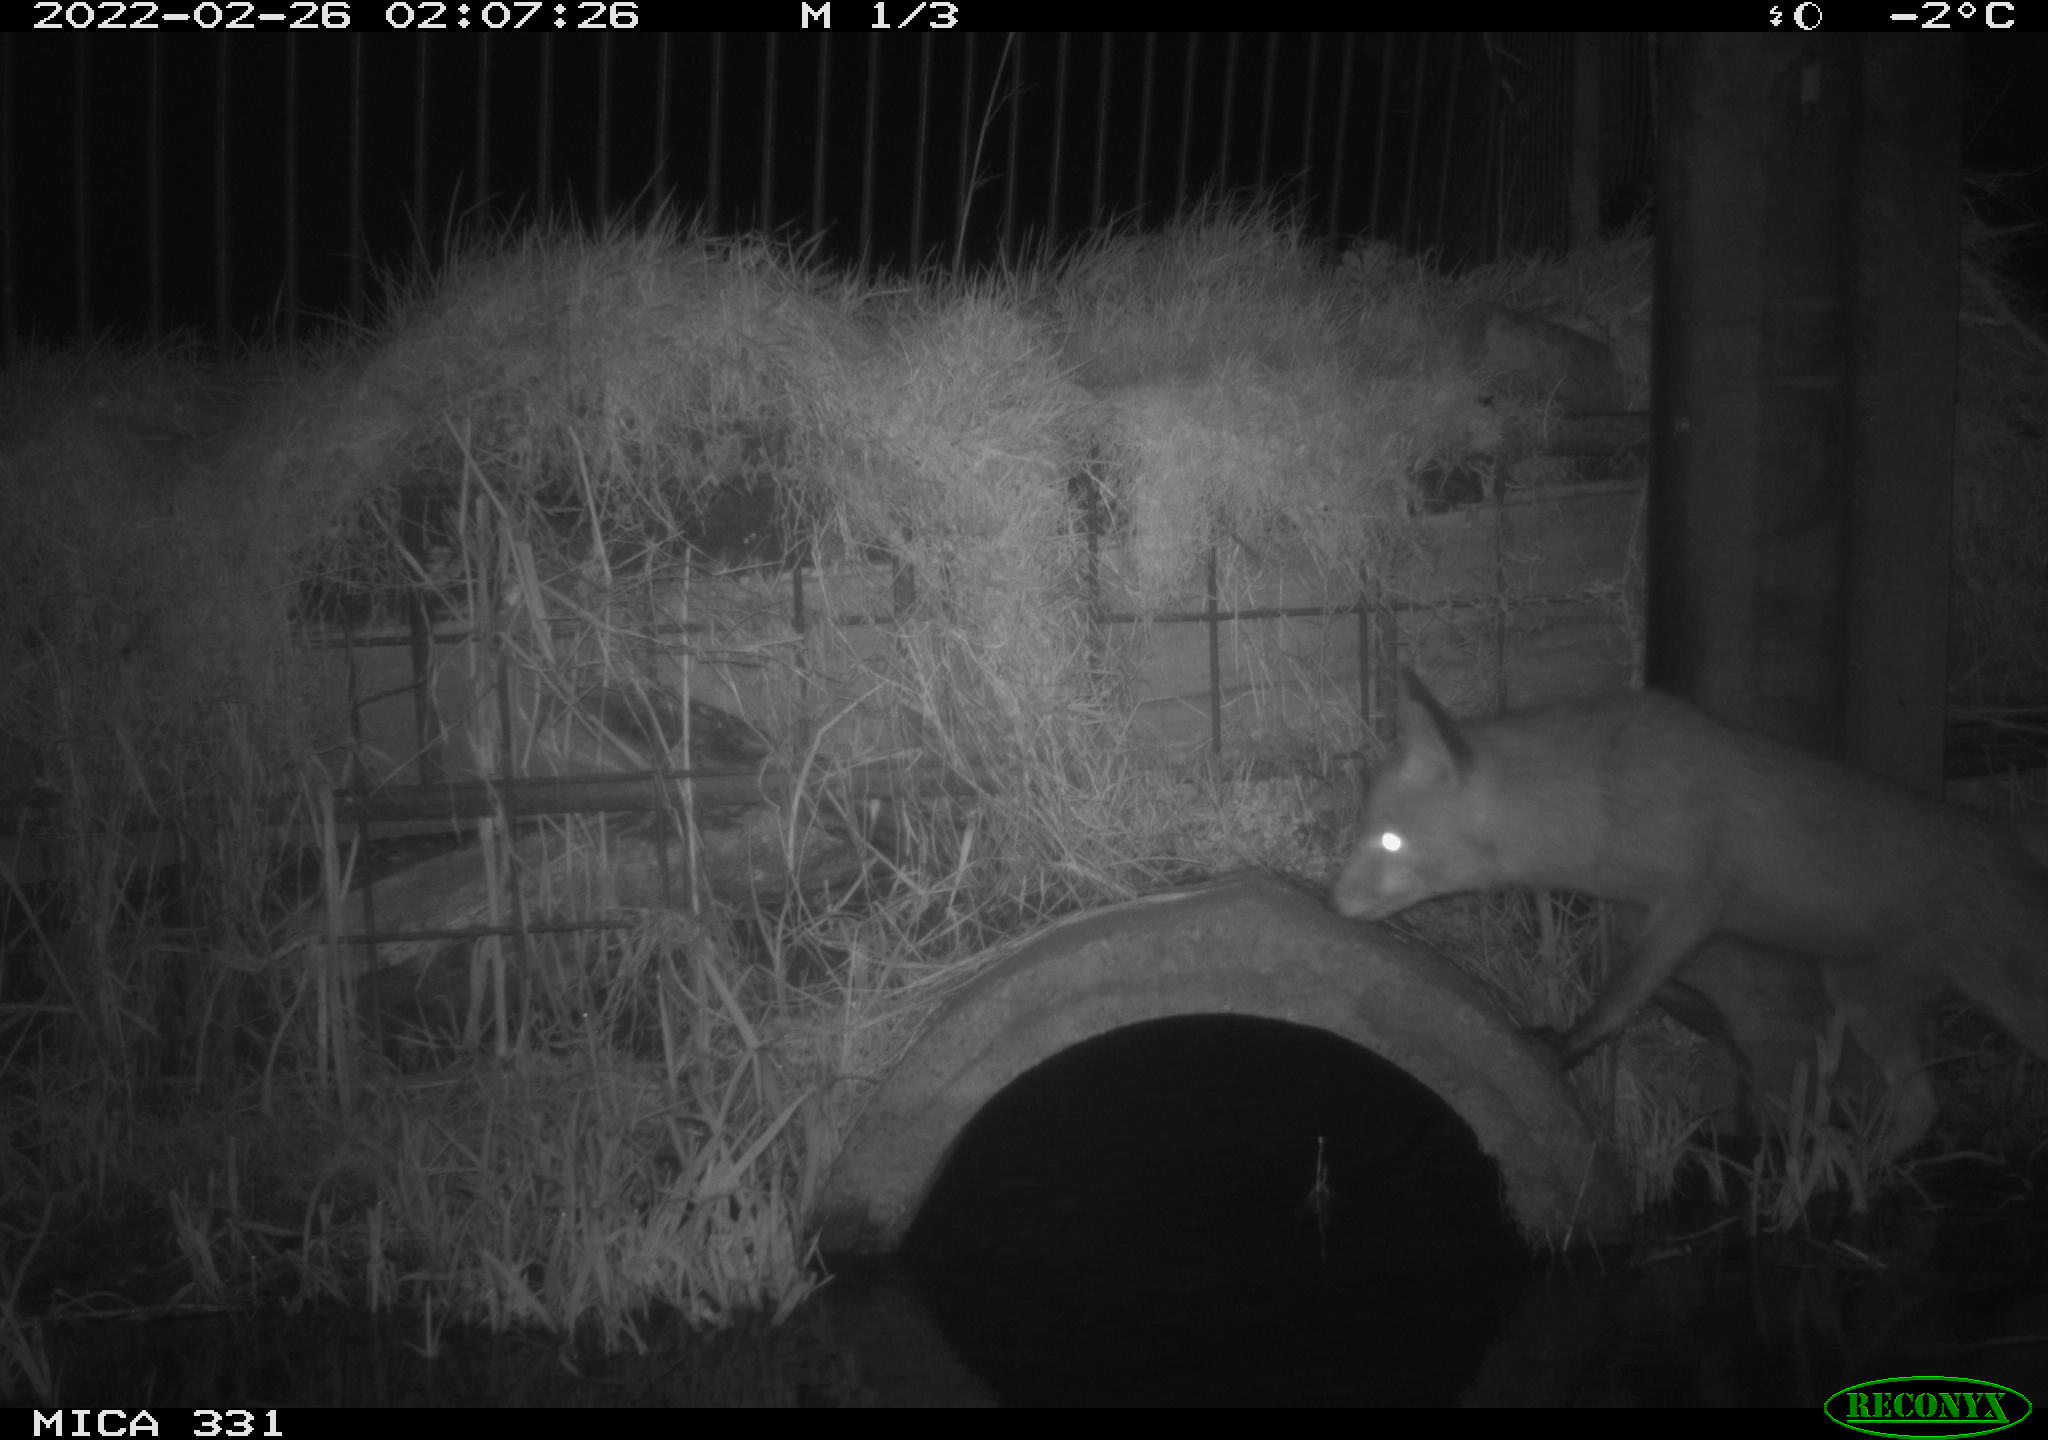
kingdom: Animalia
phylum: Chordata
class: Mammalia
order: Carnivora
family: Canidae
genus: Vulpes
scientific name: Vulpes vulpes
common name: Red fox
